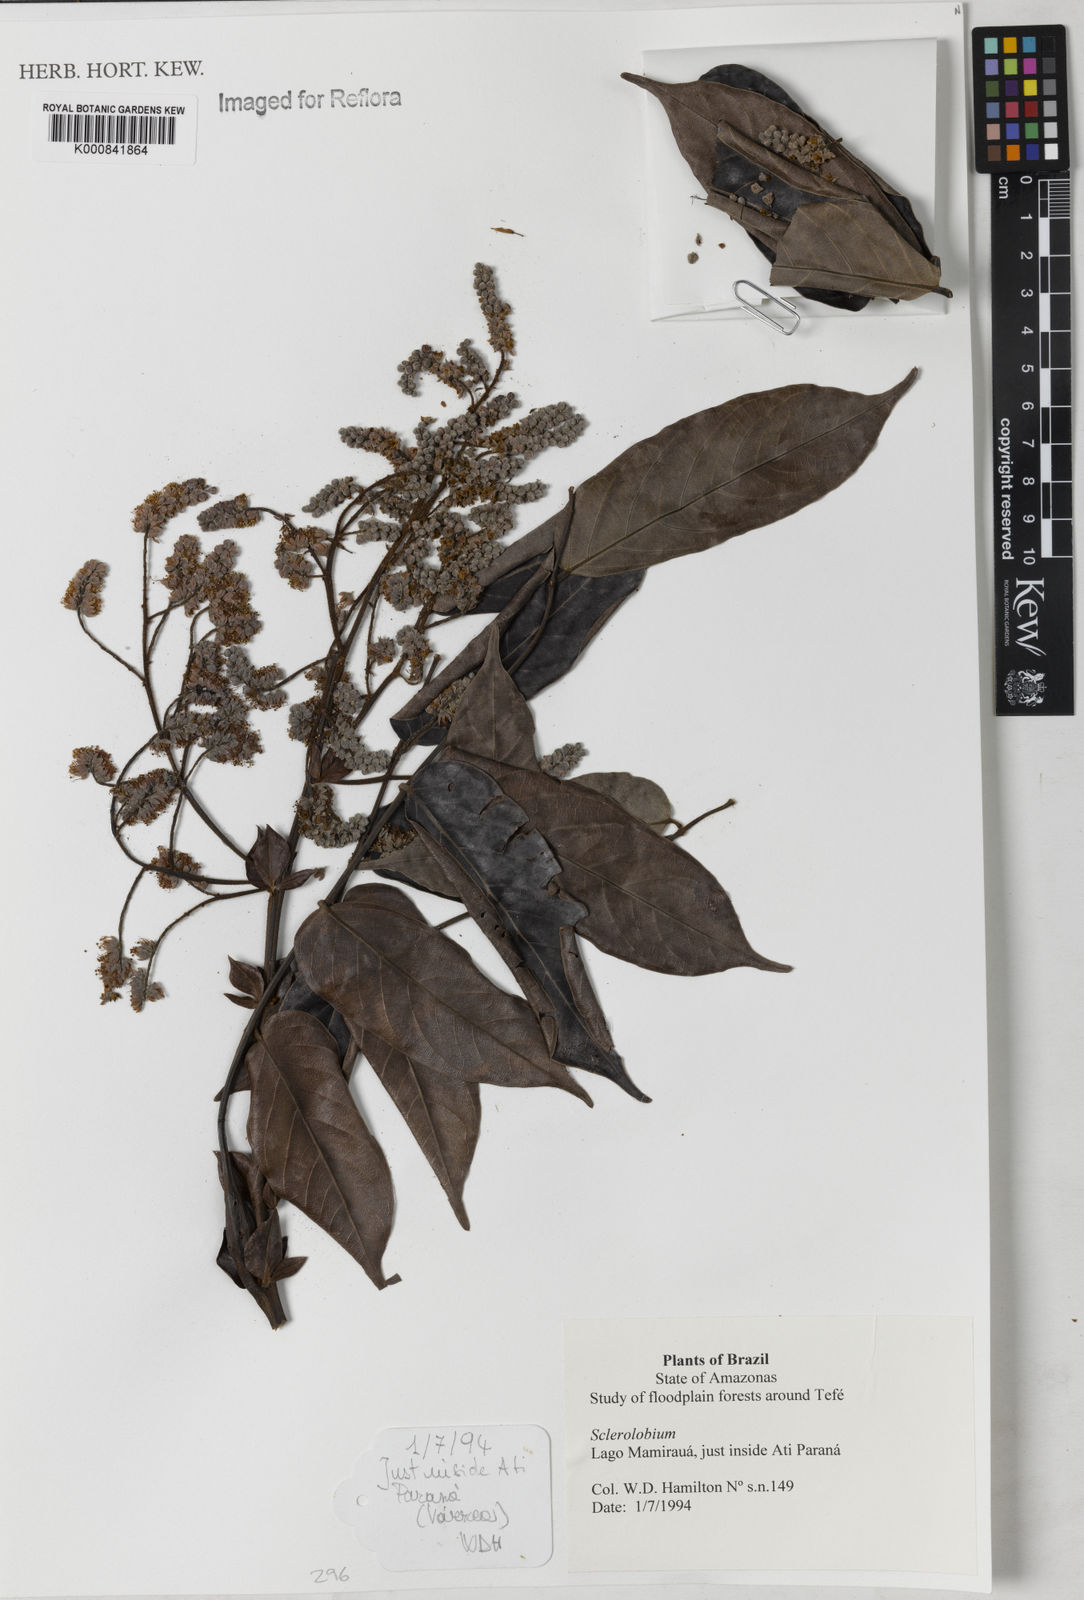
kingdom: Plantae
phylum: Tracheophyta
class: Magnoliopsida
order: Fabales
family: Fabaceae
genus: Tachigali
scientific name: Tachigali
